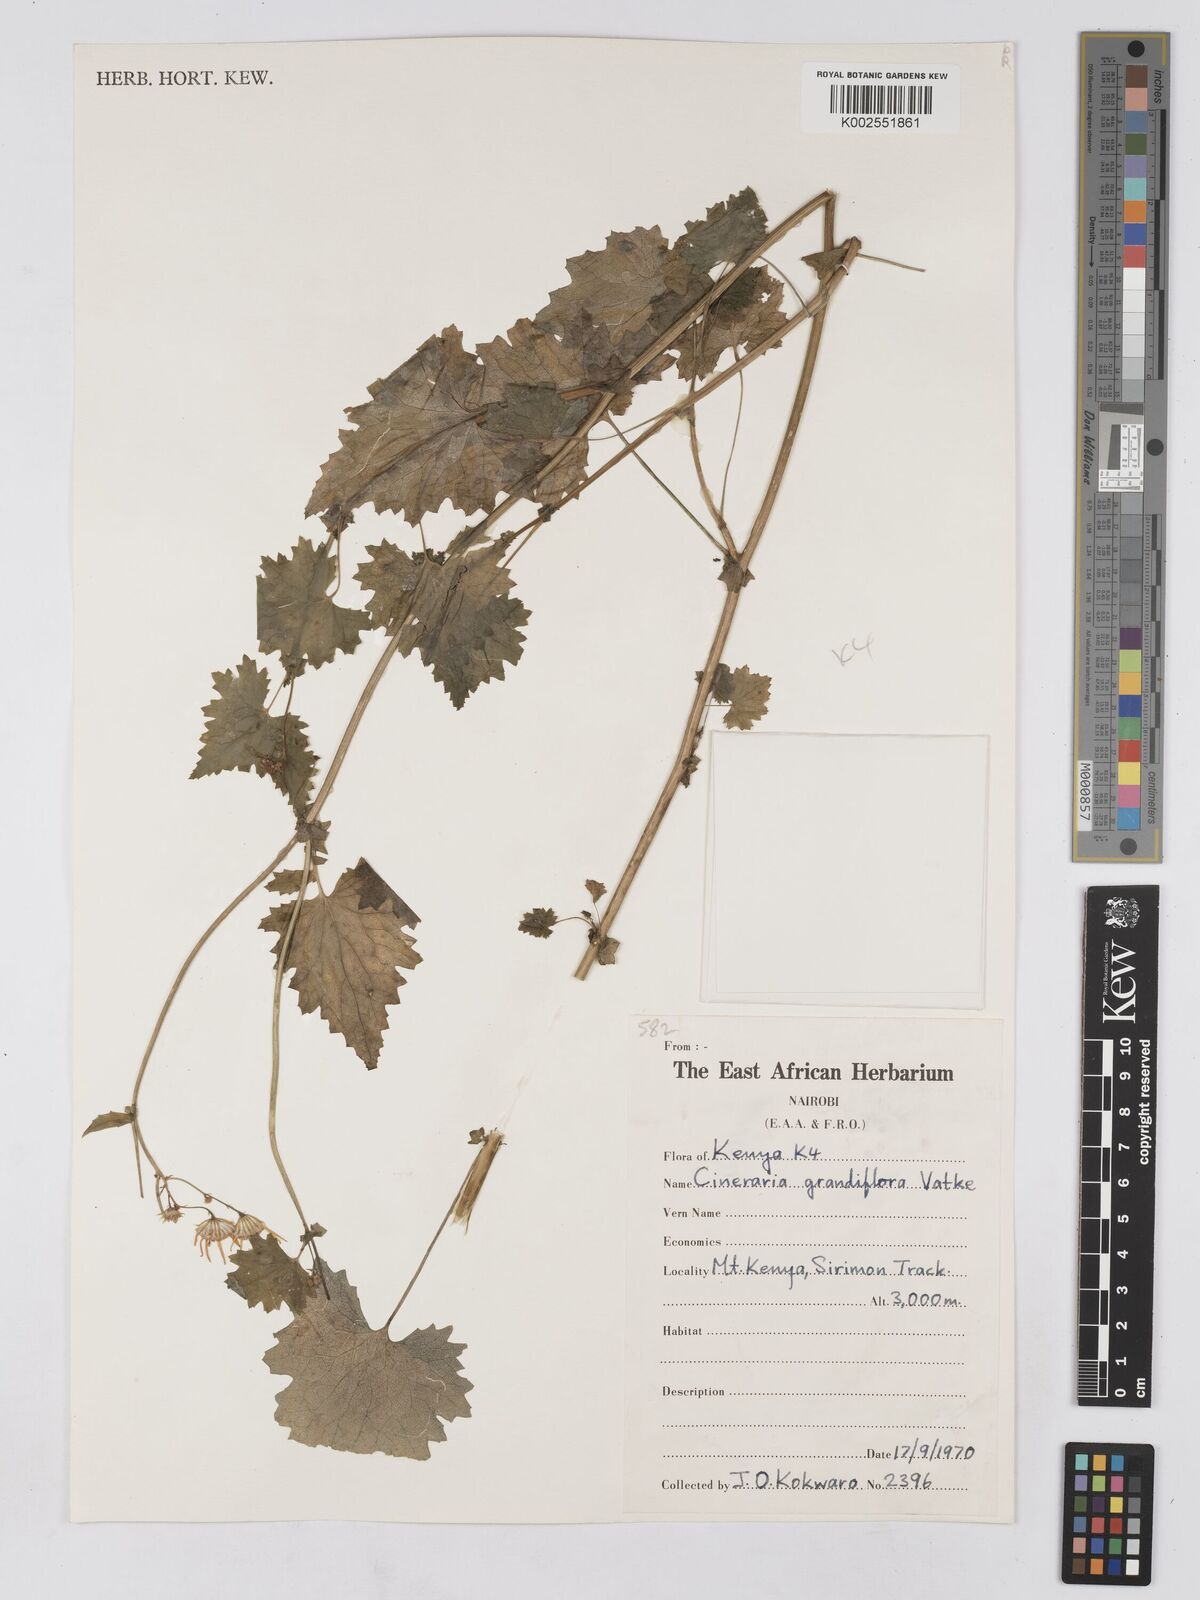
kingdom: Plantae
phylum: Tracheophyta
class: Magnoliopsida
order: Asterales
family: Asteraceae
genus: Cineraria
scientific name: Cineraria deltoidea
